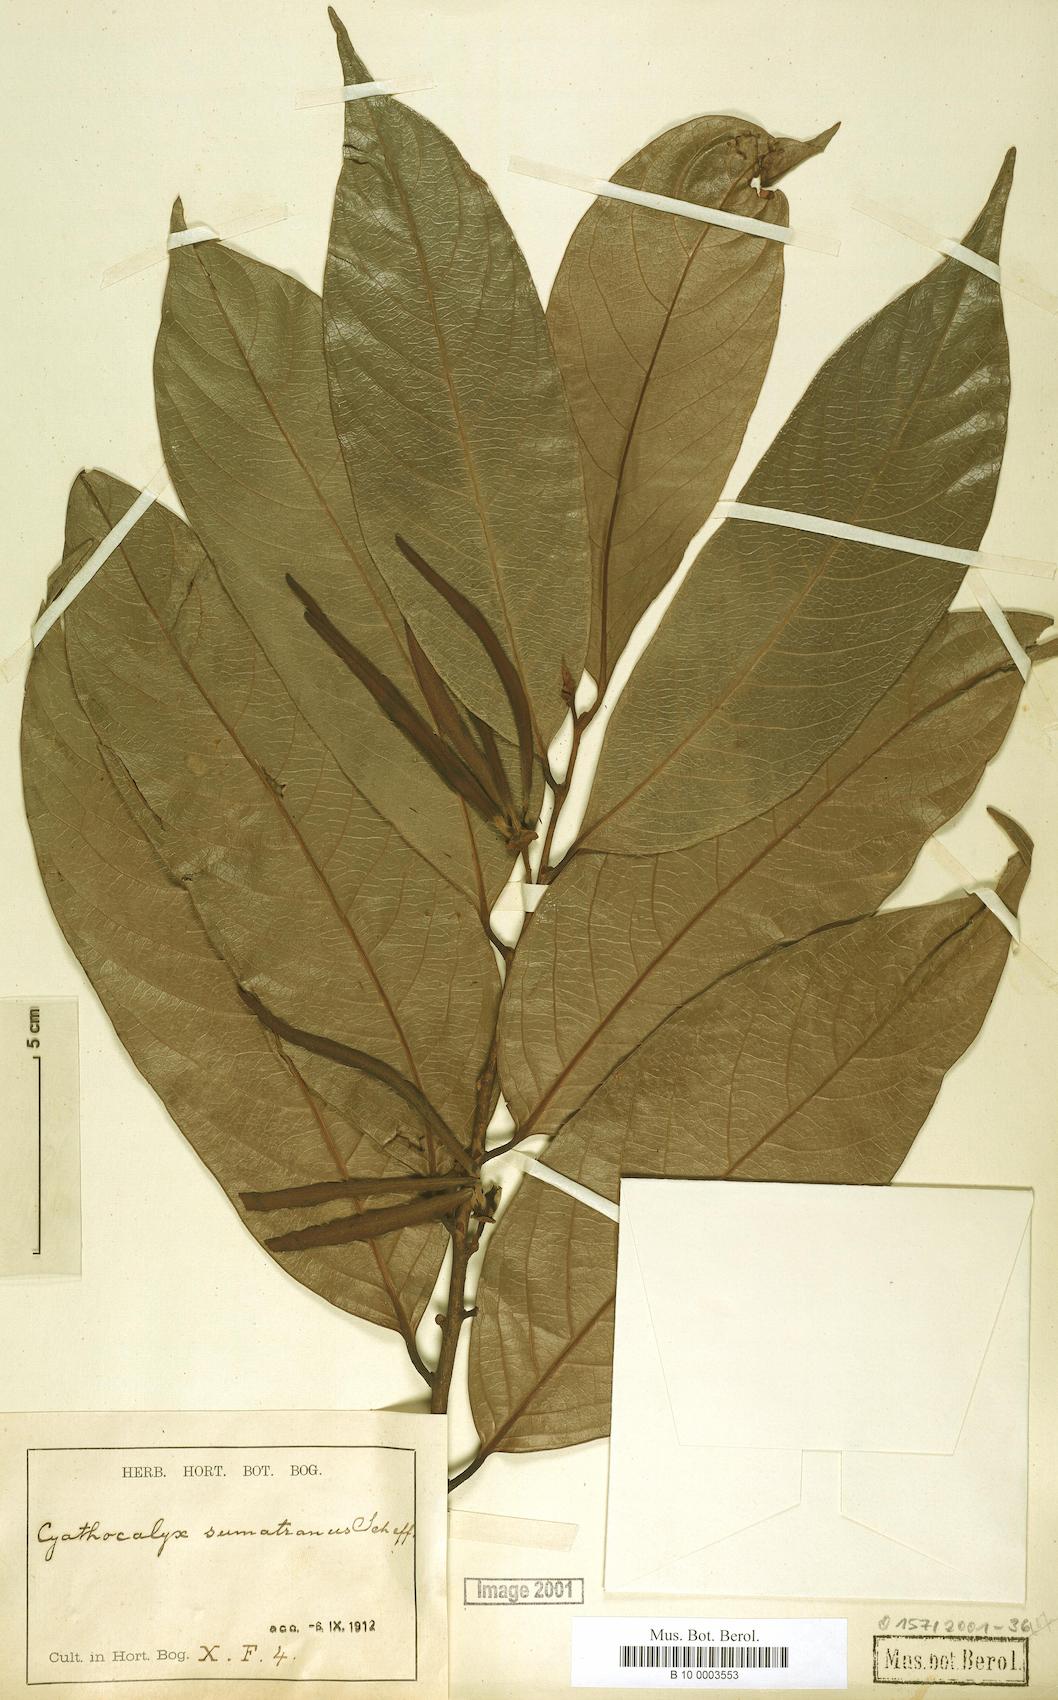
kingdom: Plantae
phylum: Tracheophyta
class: Magnoliopsida
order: Magnoliales
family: Annonaceae
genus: Cyathocalyx
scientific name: Cyathocalyx sumatranus
